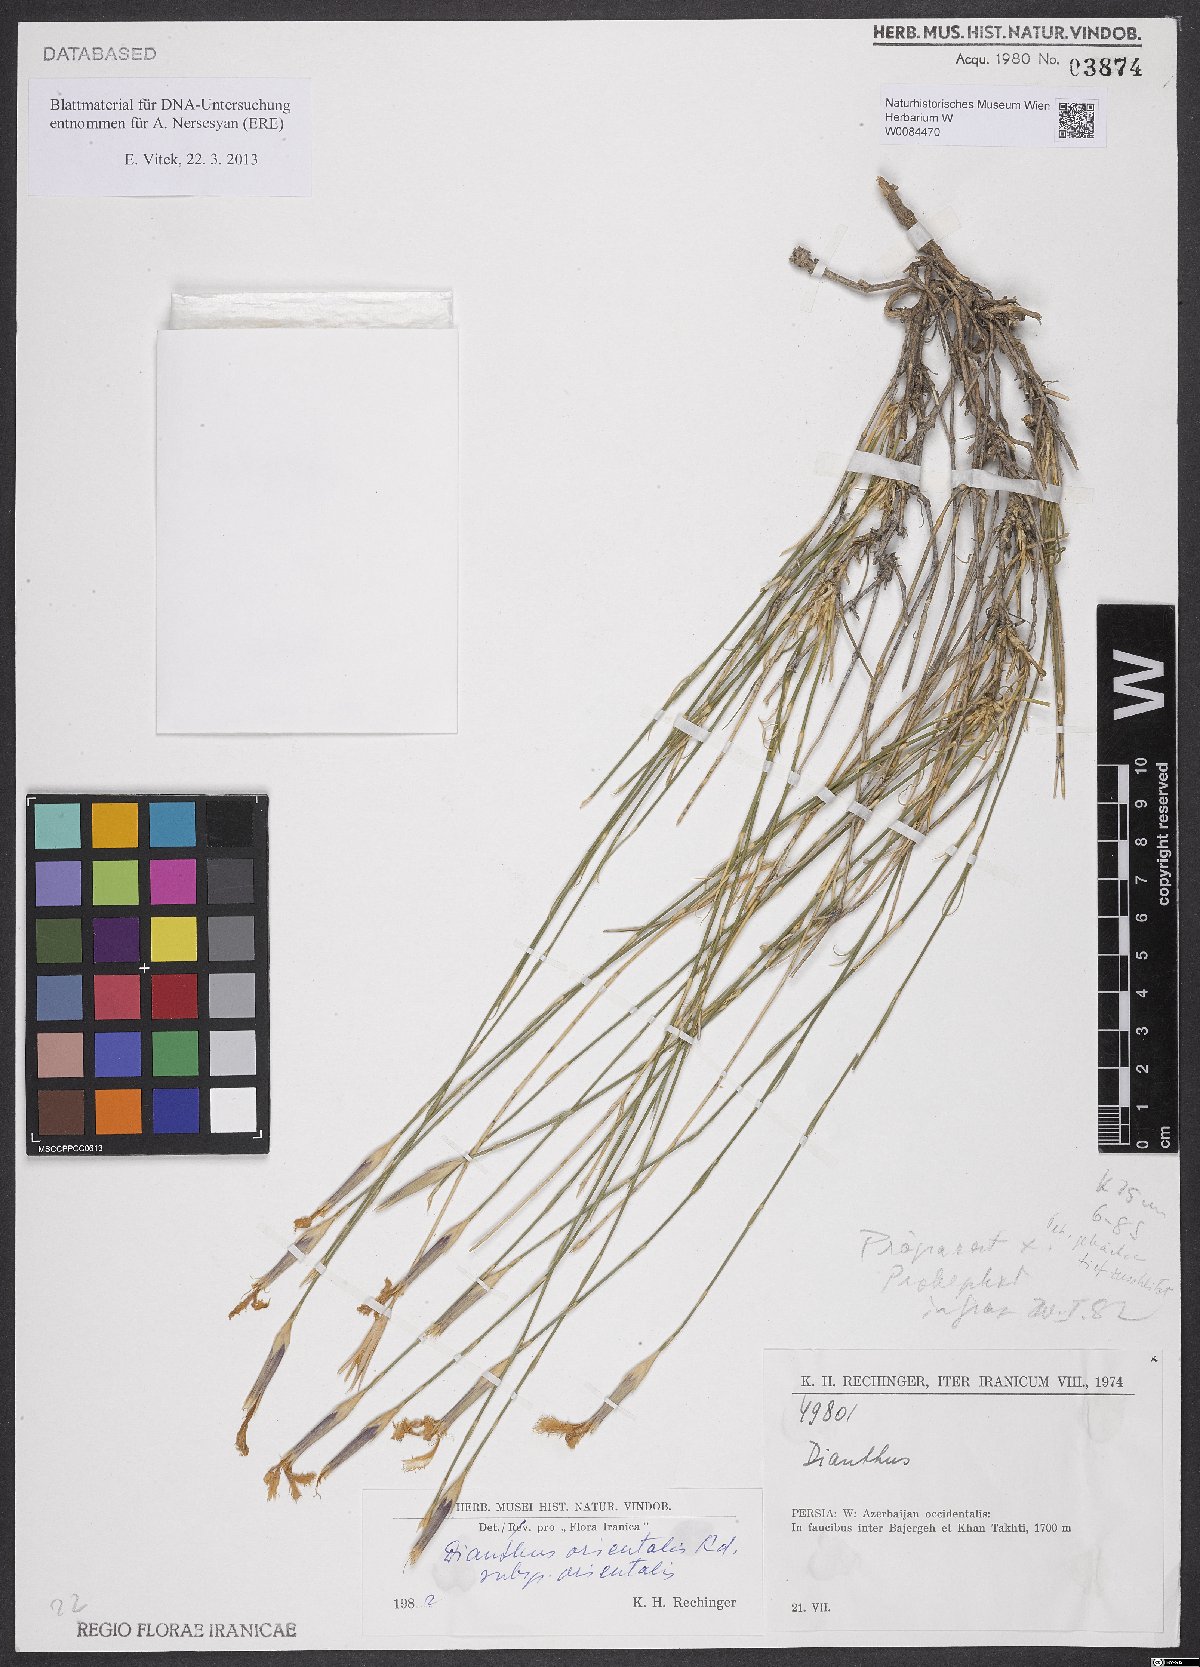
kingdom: Plantae
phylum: Tracheophyta
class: Magnoliopsida
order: Caryophyllales
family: Caryophyllaceae
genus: Dianthus
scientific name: Dianthus orientalis
